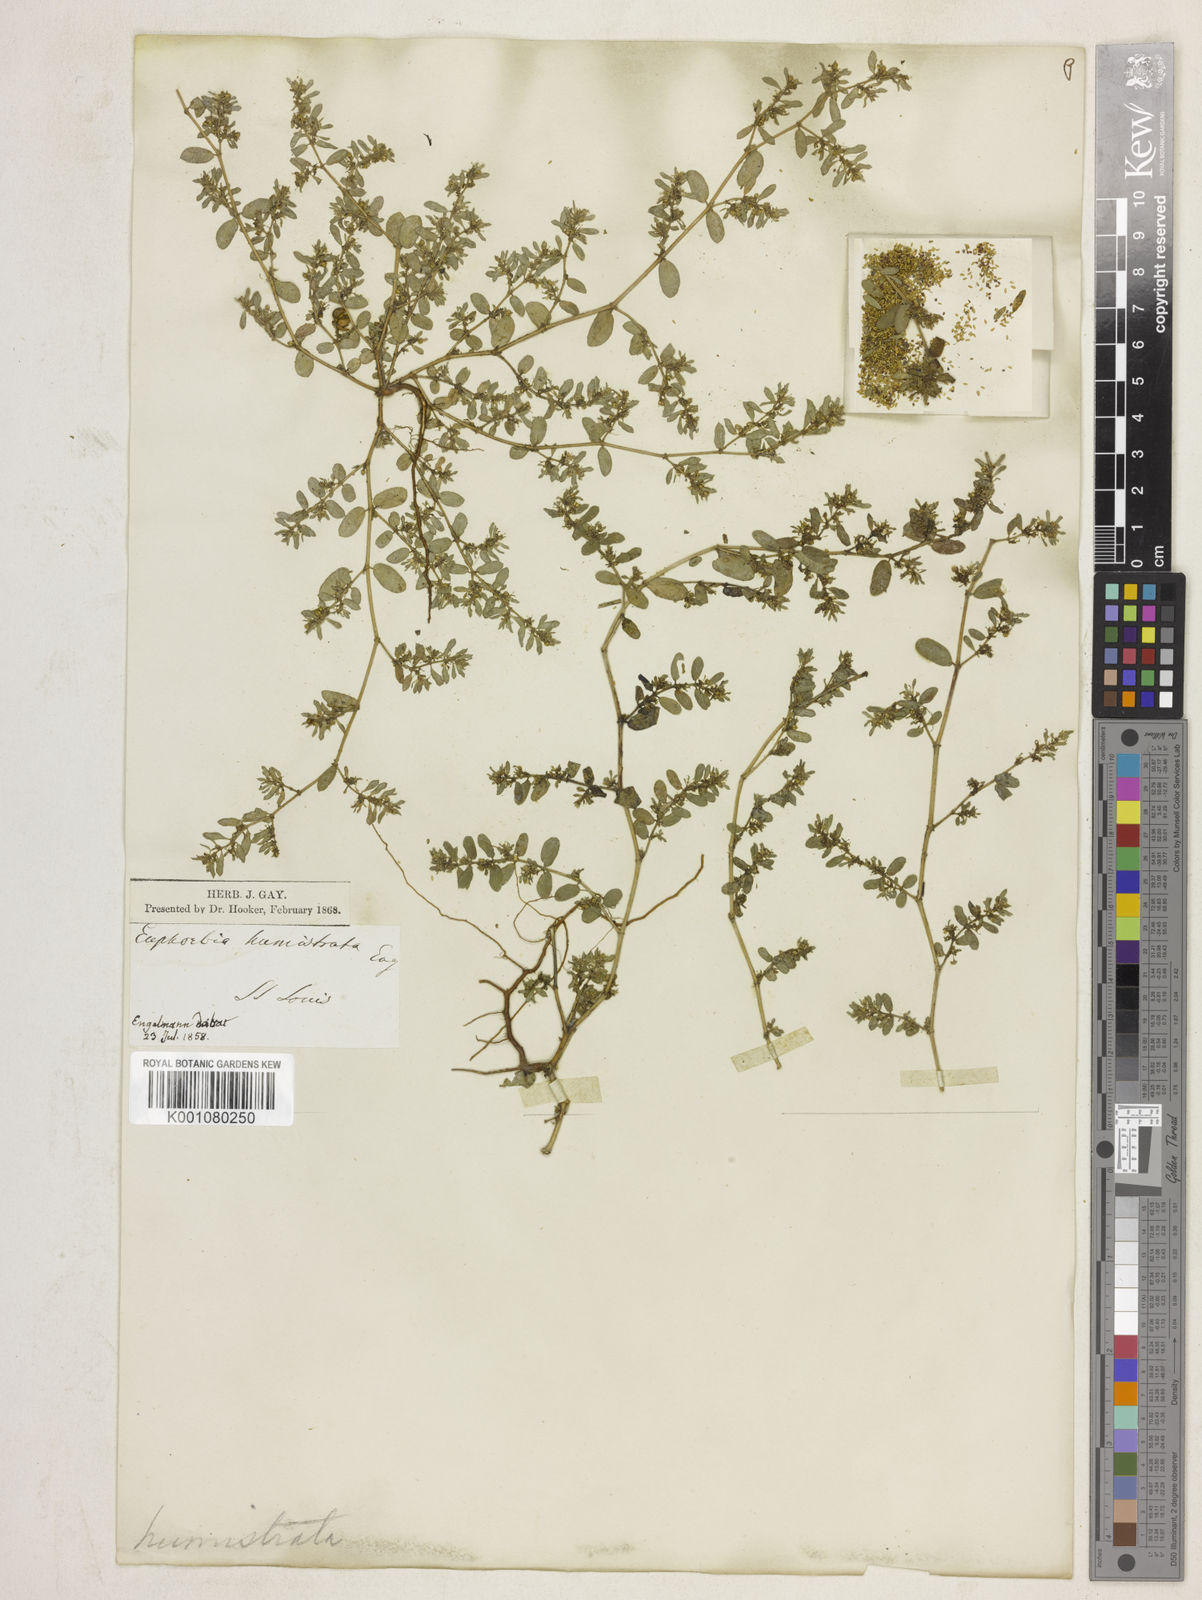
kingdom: Plantae
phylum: Tracheophyta
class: Magnoliopsida
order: Malpighiales
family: Euphorbiaceae
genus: Euphorbia
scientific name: Euphorbia
